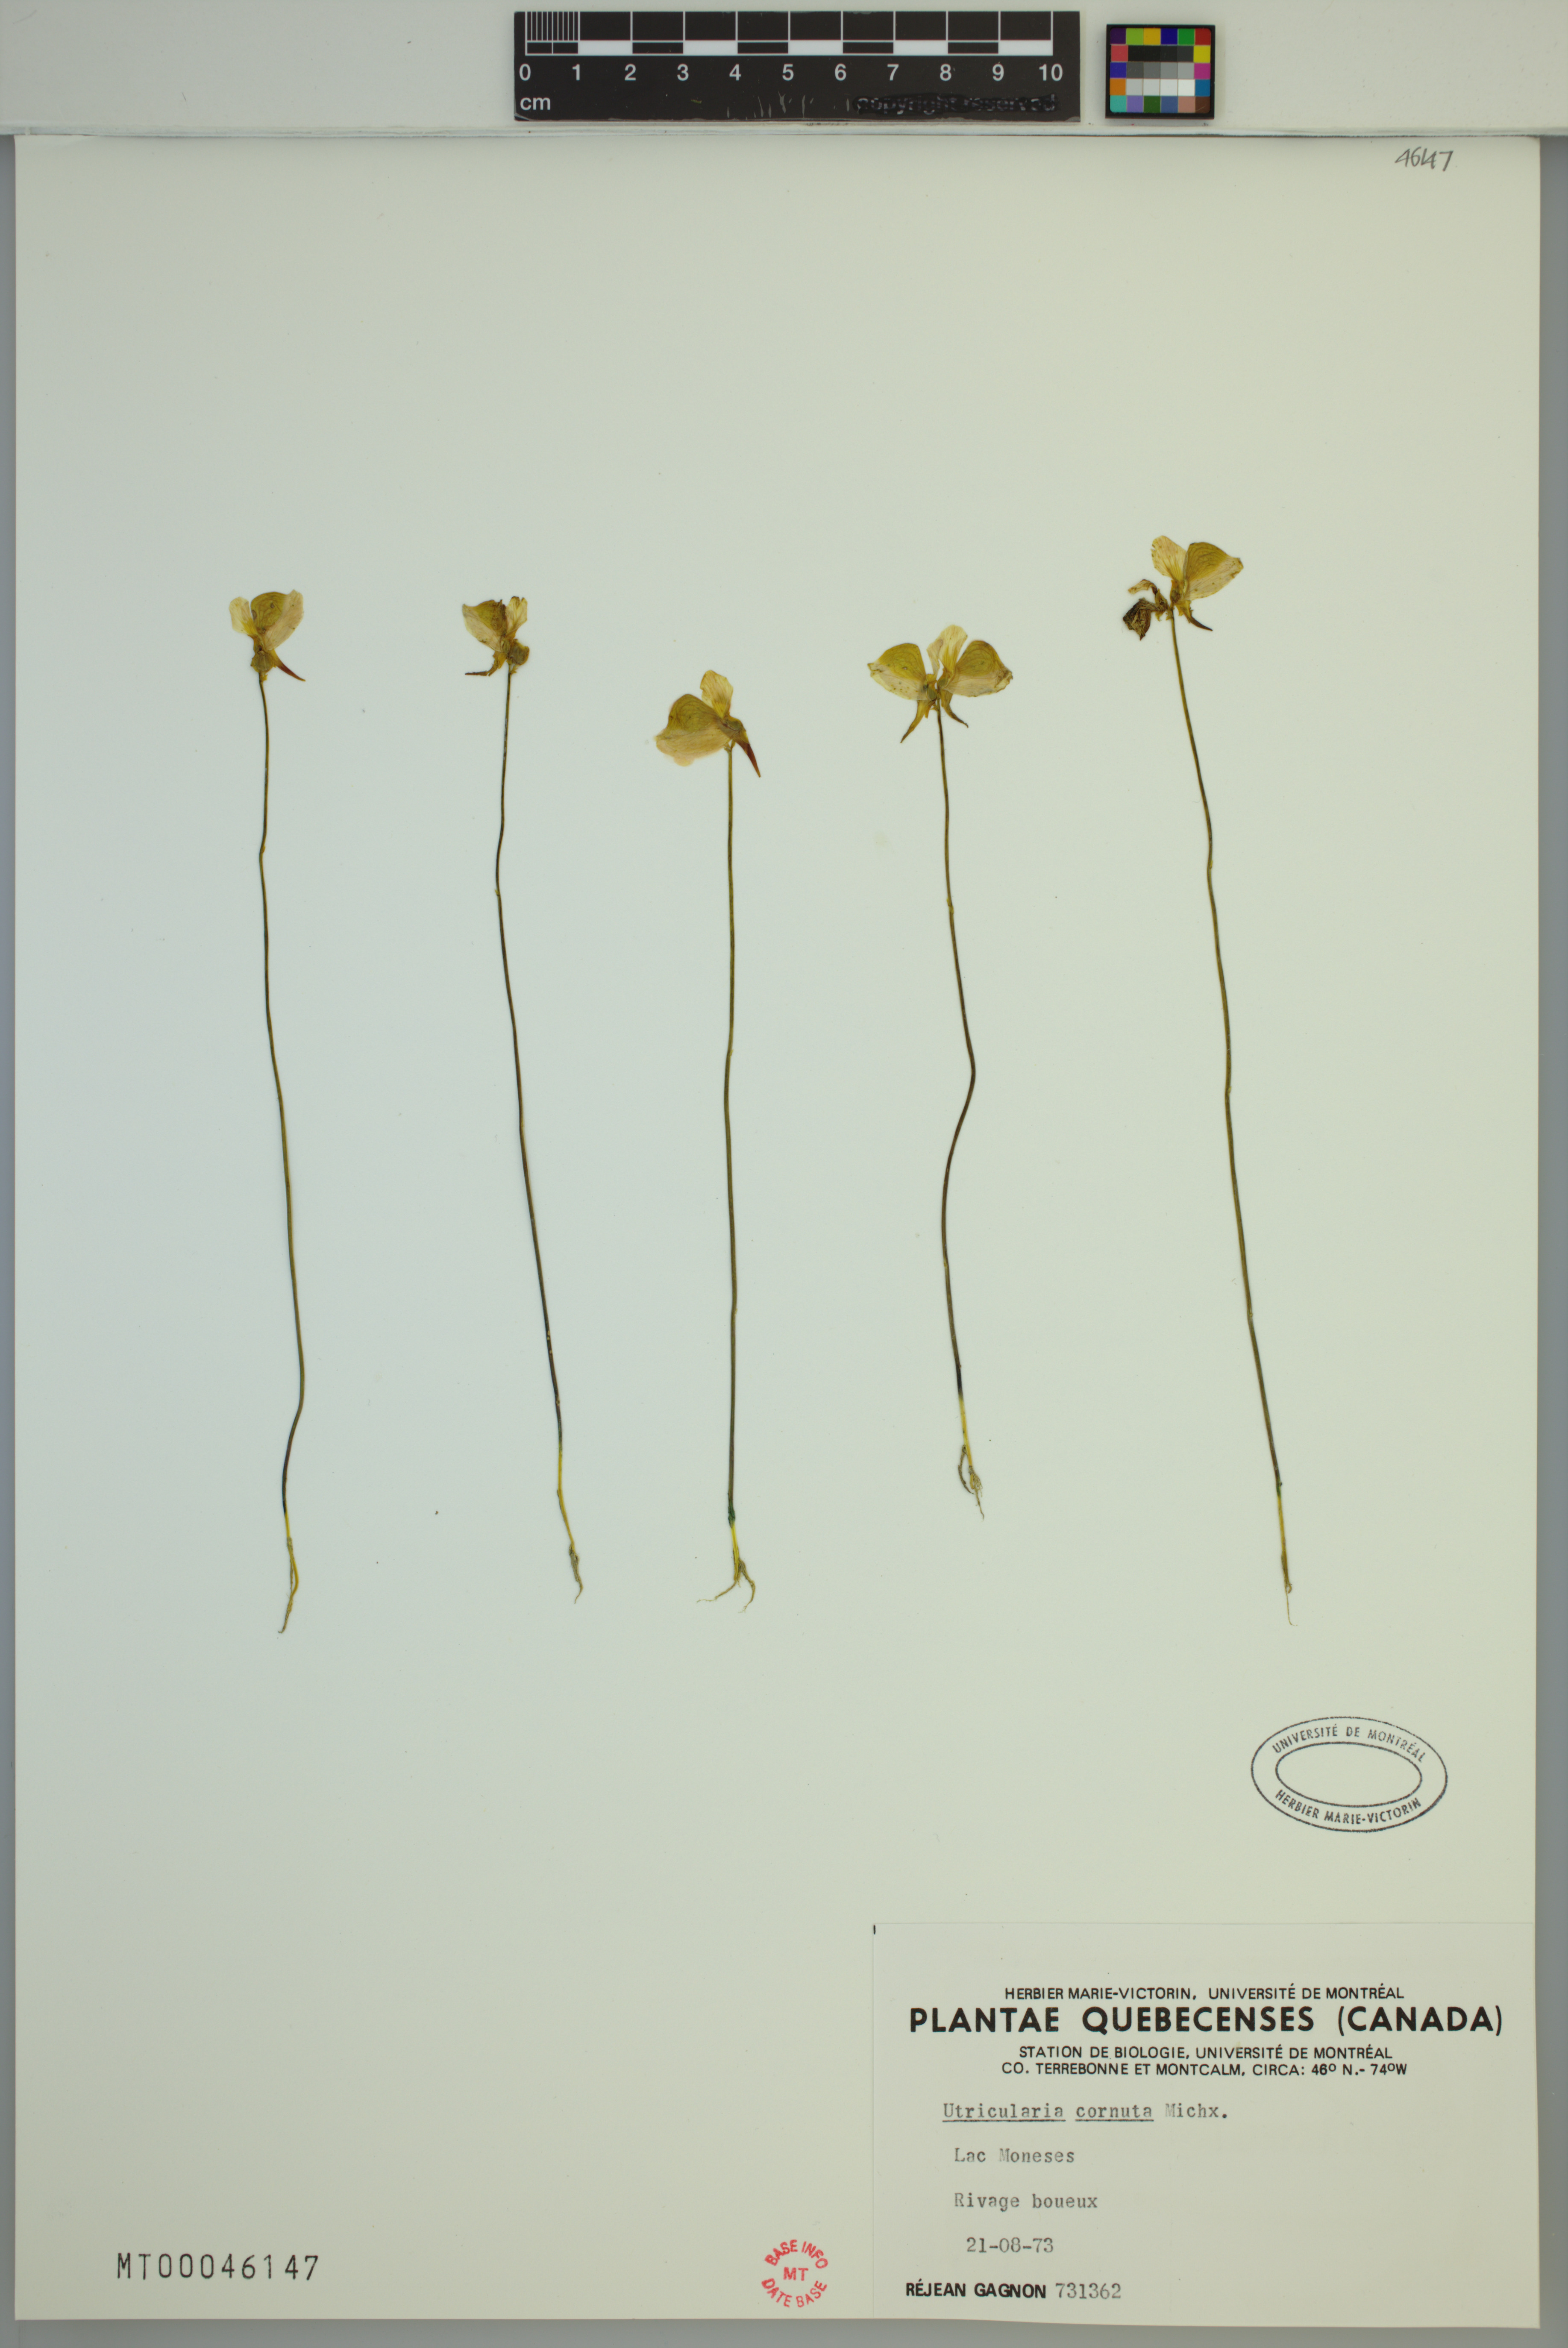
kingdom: Plantae
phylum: Tracheophyta
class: Magnoliopsida
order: Lamiales
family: Lentibulariaceae
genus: Utricularia
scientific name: Utricularia cornuta
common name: Horned bladderwort
